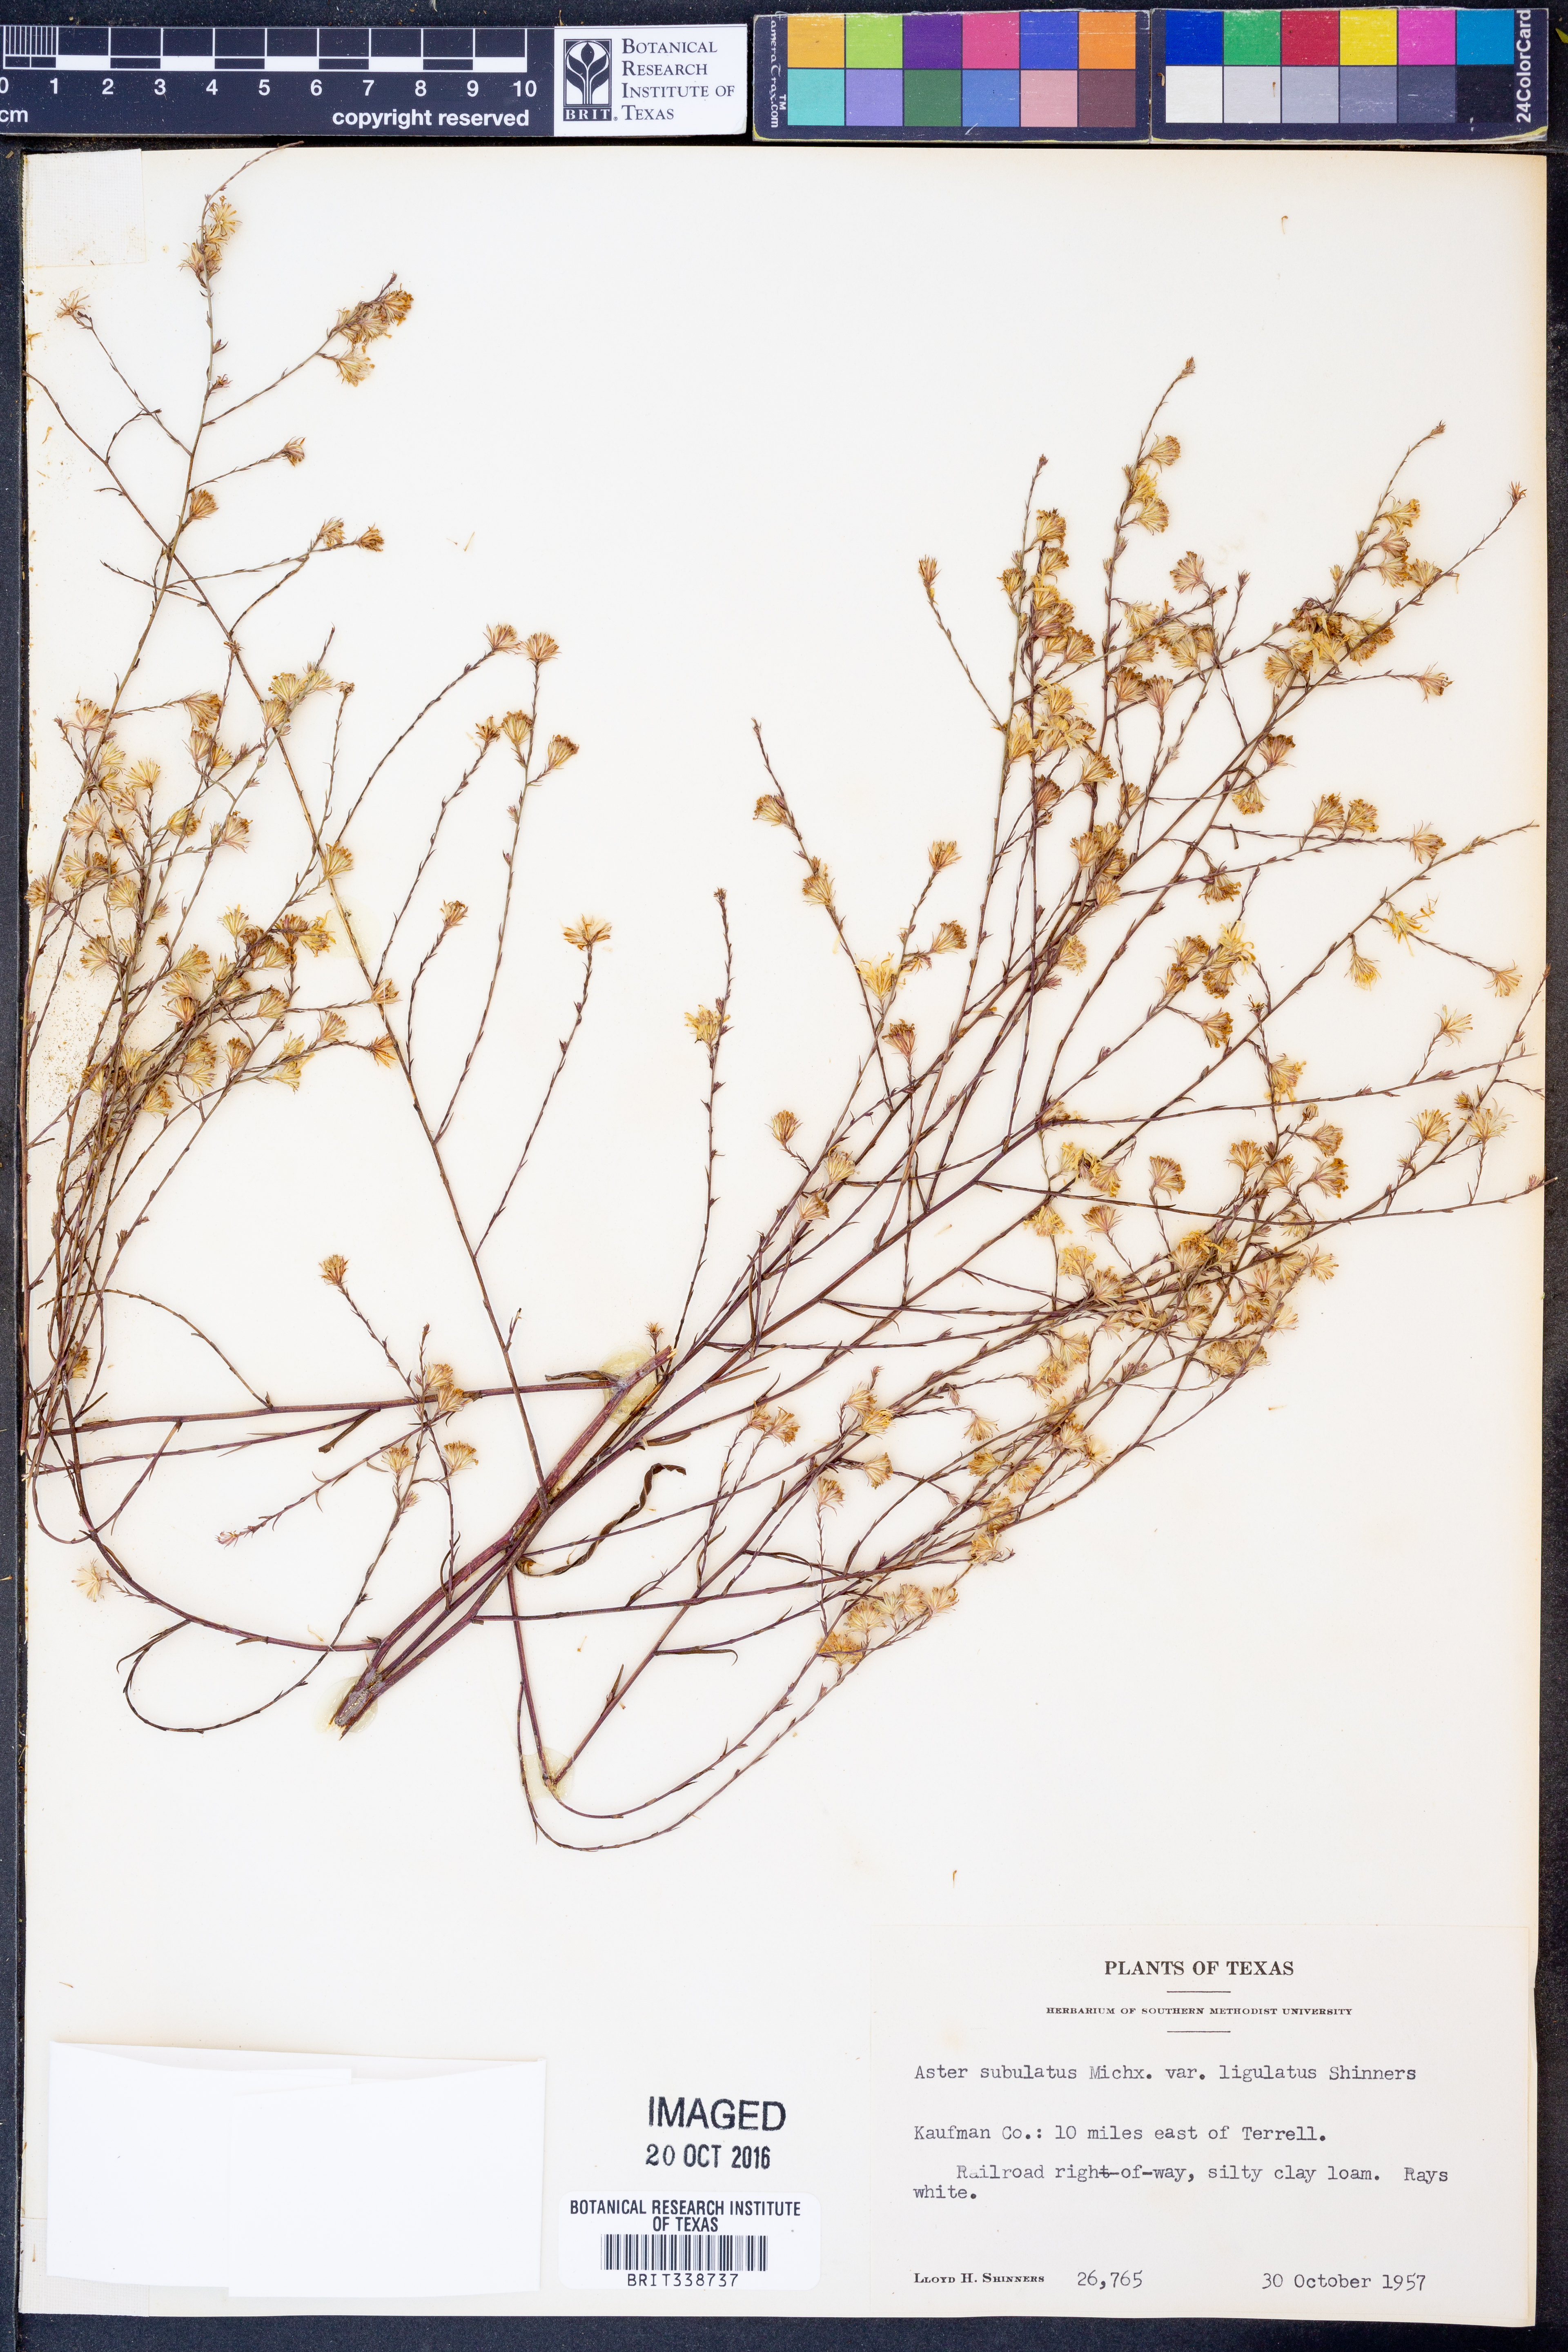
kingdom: Plantae
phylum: Tracheophyta
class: Magnoliopsida
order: Asterales
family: Asteraceae
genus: Symphyotrichum
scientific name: Symphyotrichum divaricatum
